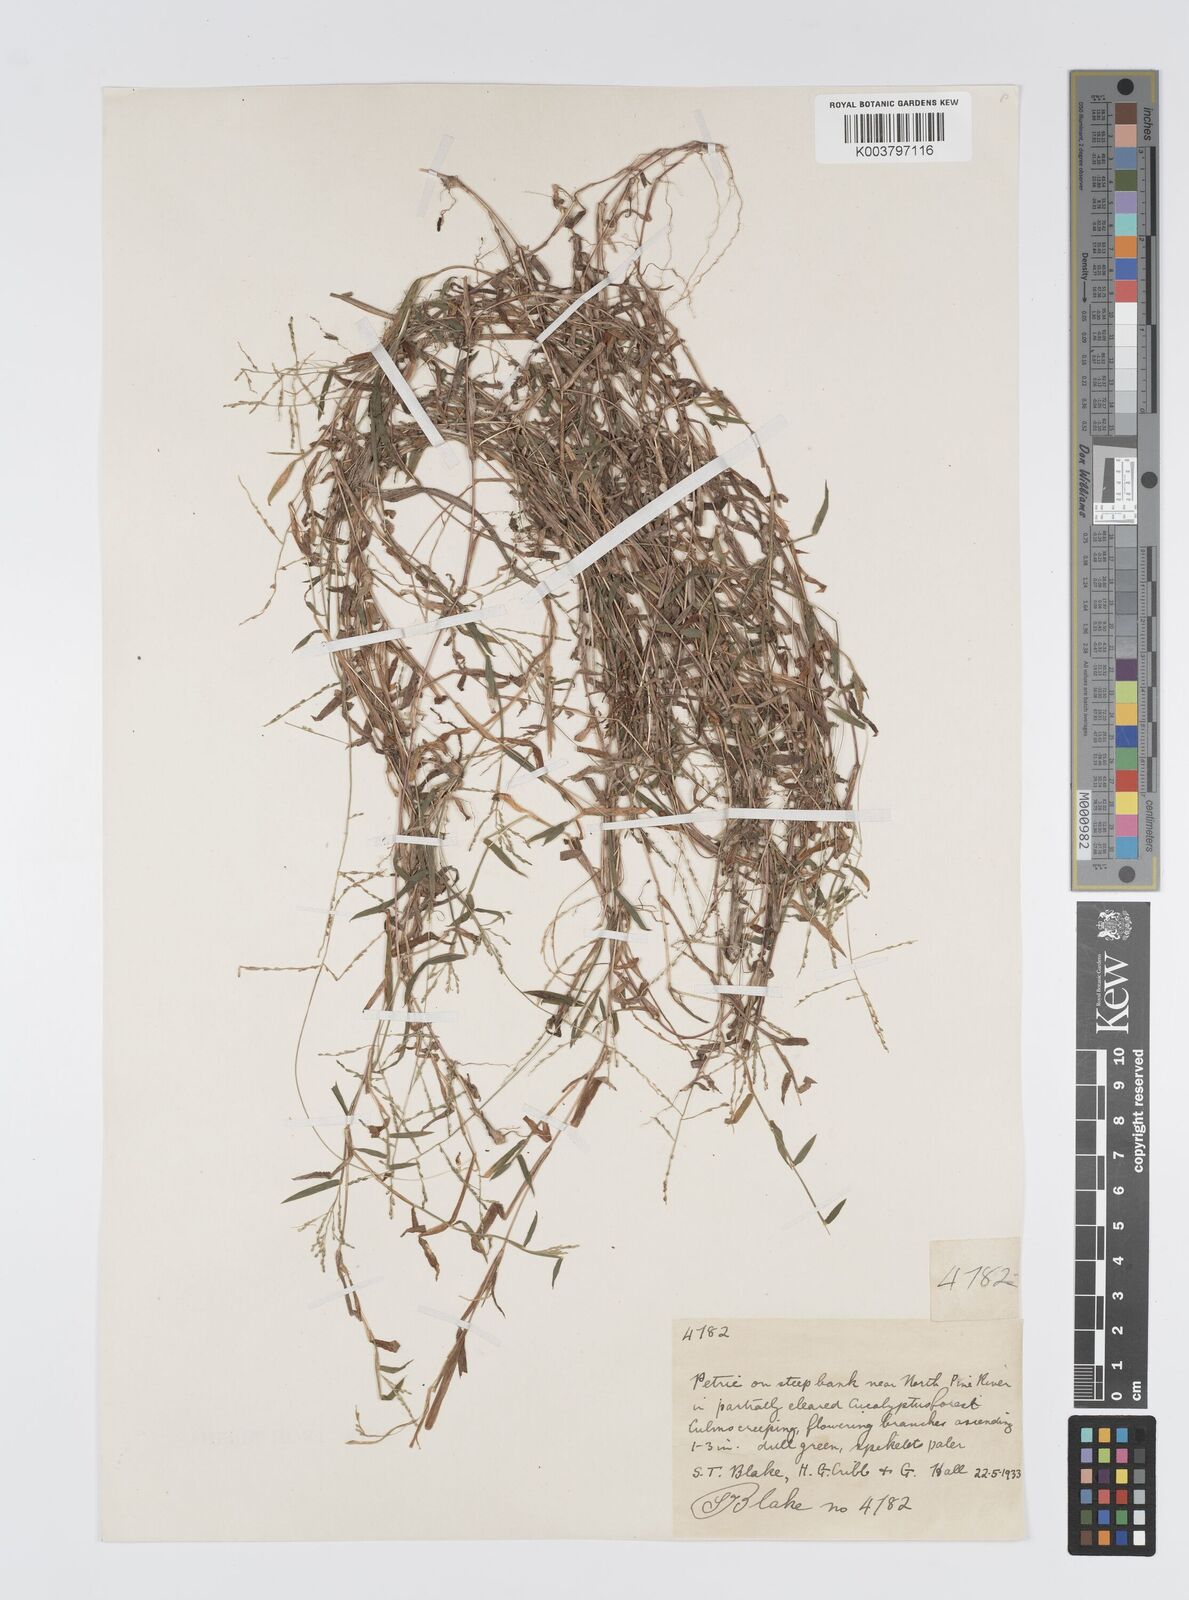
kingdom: Plantae
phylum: Tracheophyta
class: Liliopsida
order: Poales
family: Poaceae
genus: Digitaria
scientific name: Digitaria diffusa
